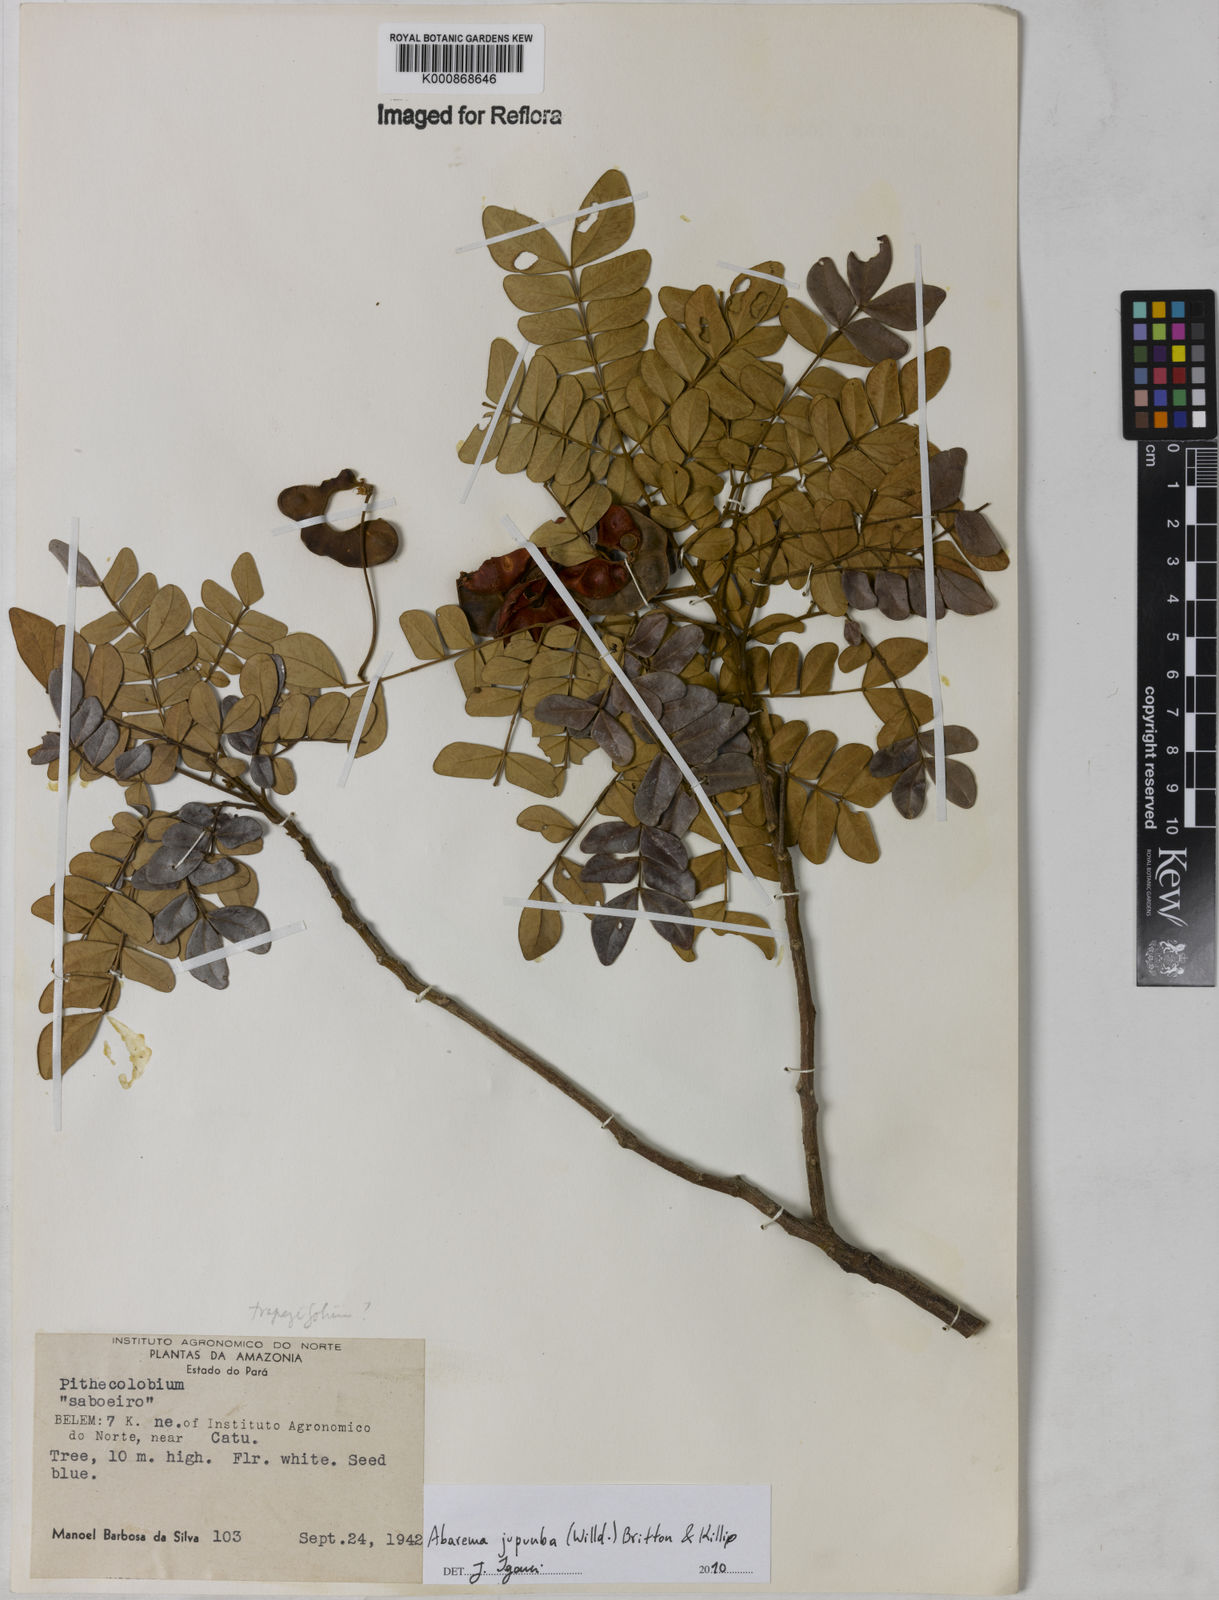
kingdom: Plantae
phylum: Tracheophyta
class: Magnoliopsida
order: Fabales
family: Fabaceae
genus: Jupunba
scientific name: Jupunba trapezifolia
